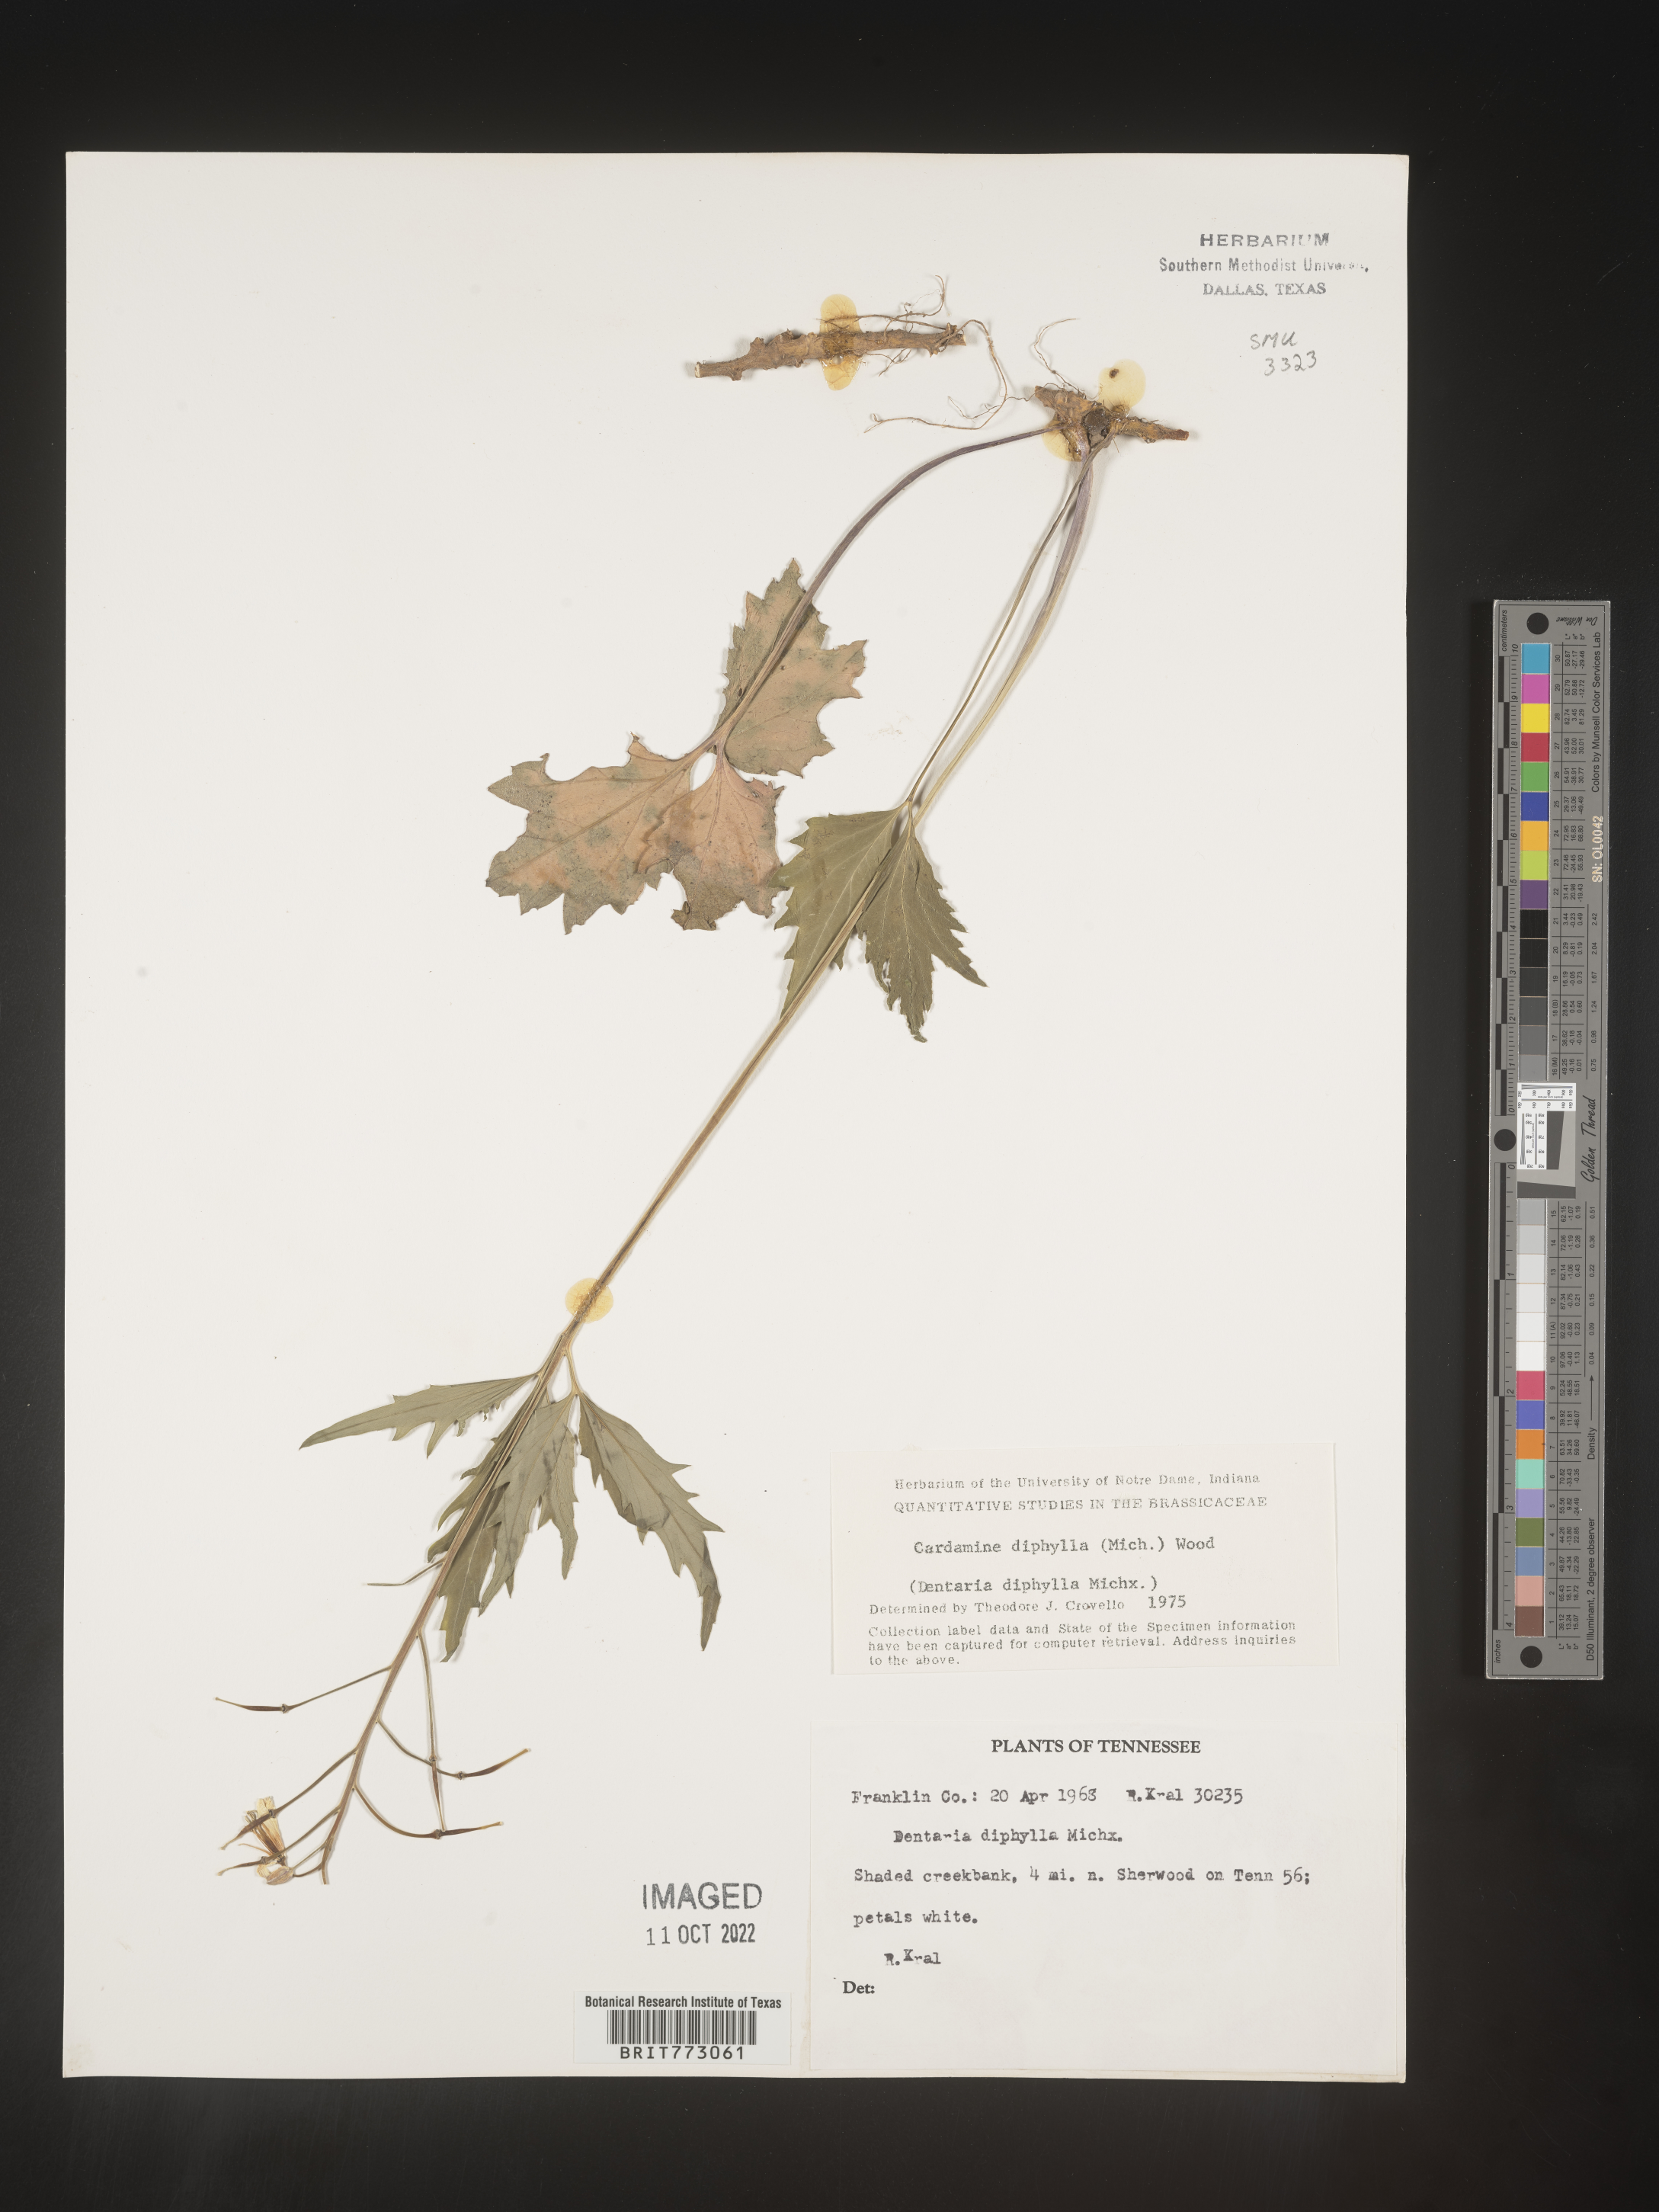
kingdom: Plantae
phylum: Tracheophyta
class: Magnoliopsida
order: Brassicales
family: Brassicaceae
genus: Cardamine
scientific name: Cardamine diphylla
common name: Broad-leaved toothwort
